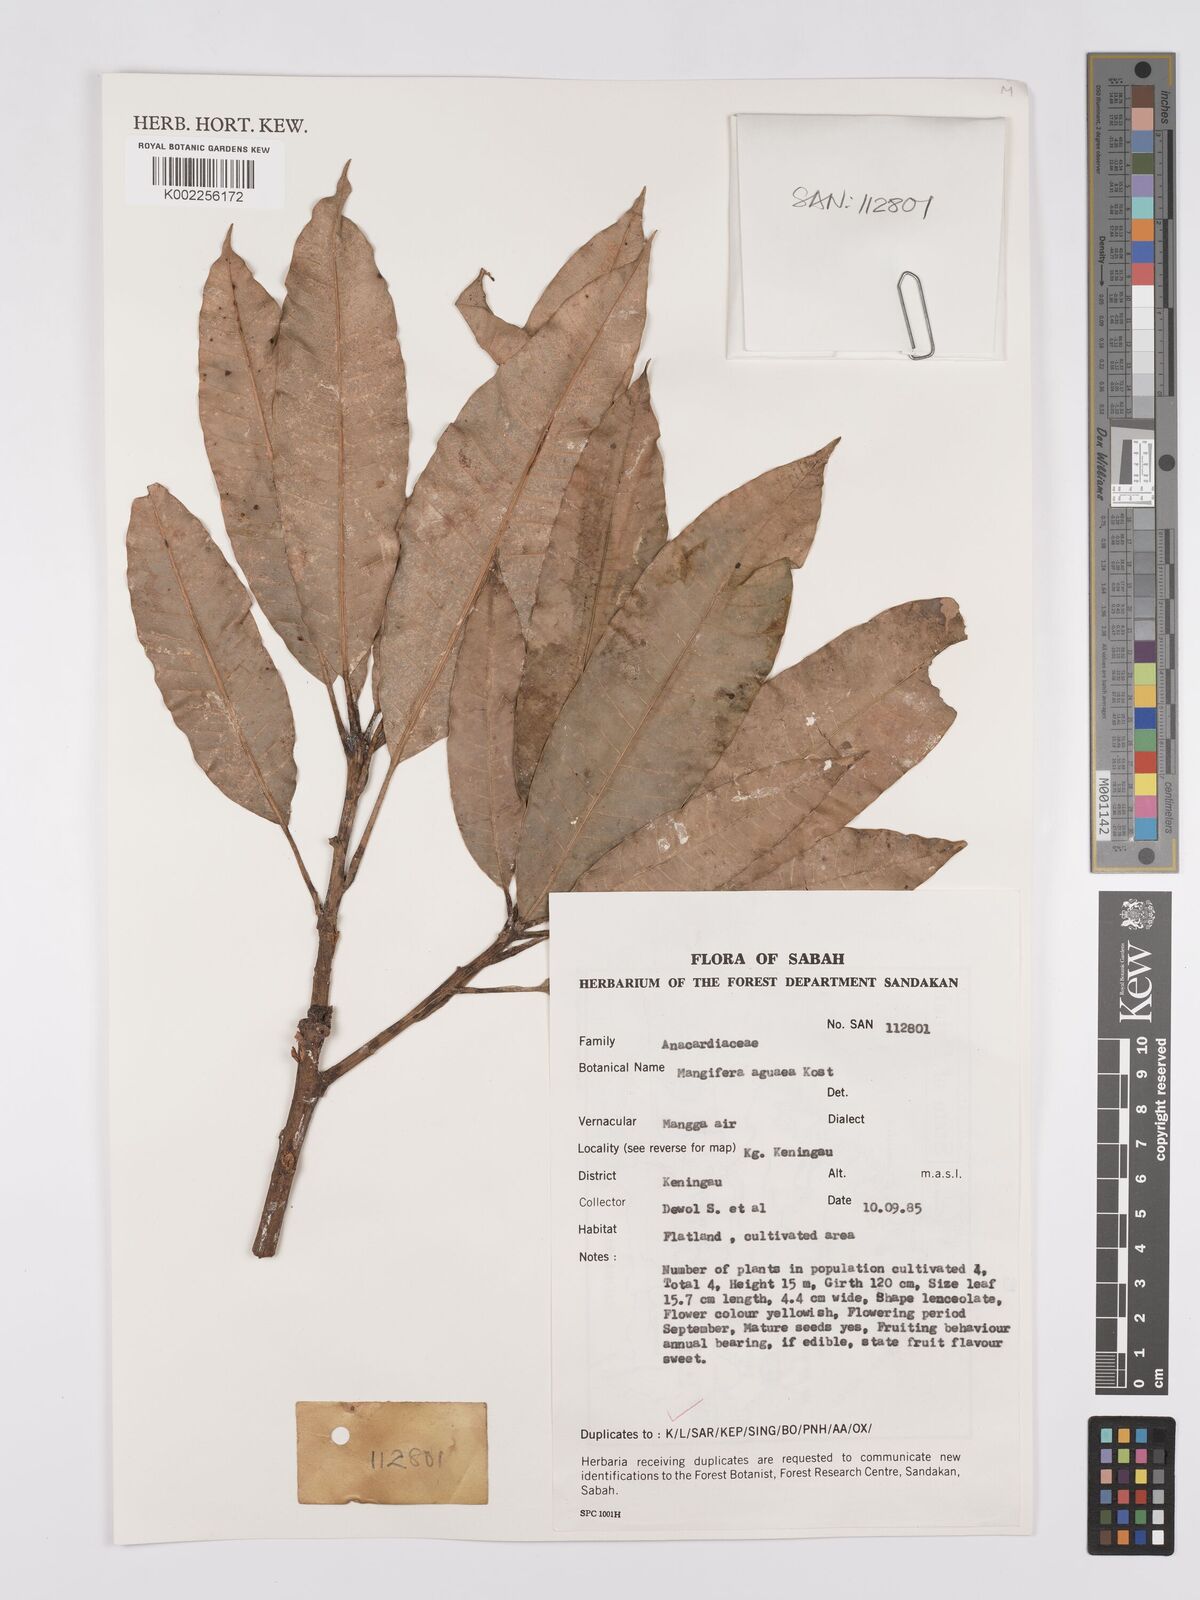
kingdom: Plantae
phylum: Tracheophyta
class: Magnoliopsida
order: Sapindales
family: Anacardiaceae
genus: Mangifera
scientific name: Mangifera laurina
